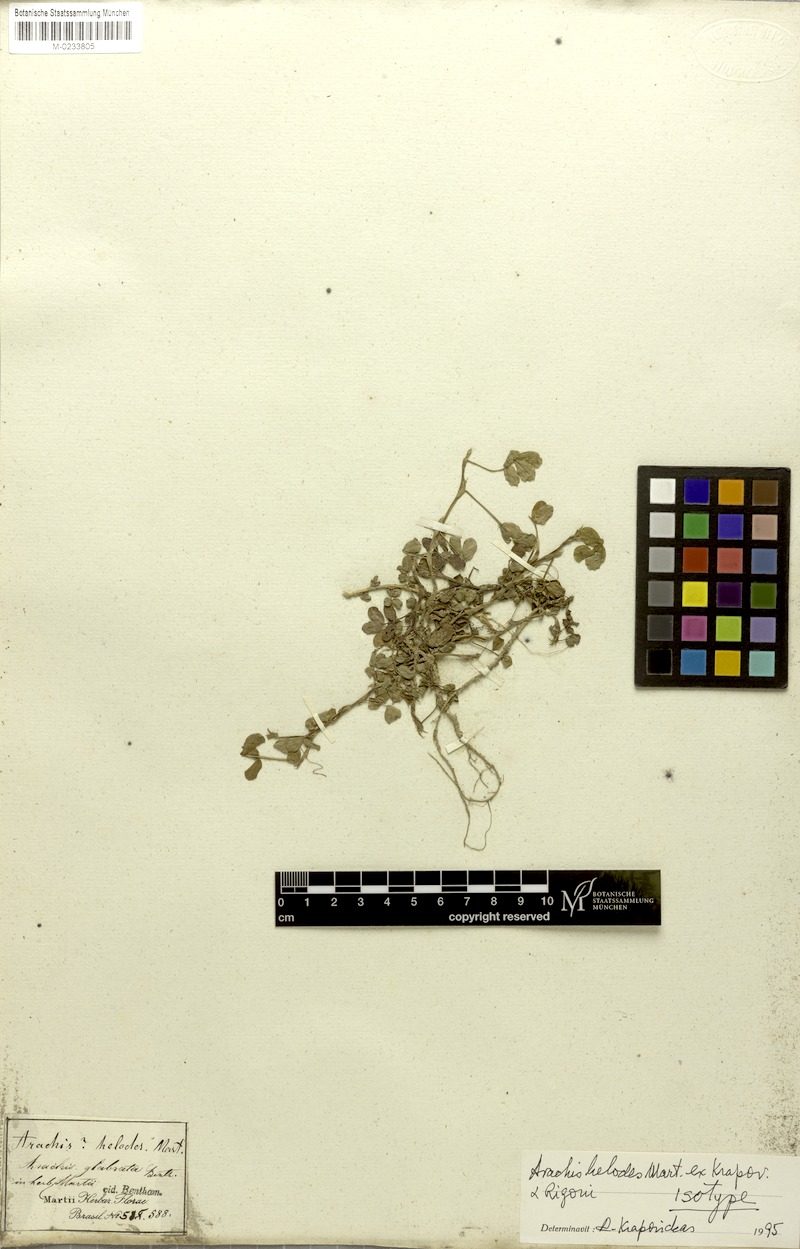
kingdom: Plantae
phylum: Tracheophyta
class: Magnoliopsida
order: Fabales
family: Fabaceae
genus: Arachis
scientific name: Arachis helodes
